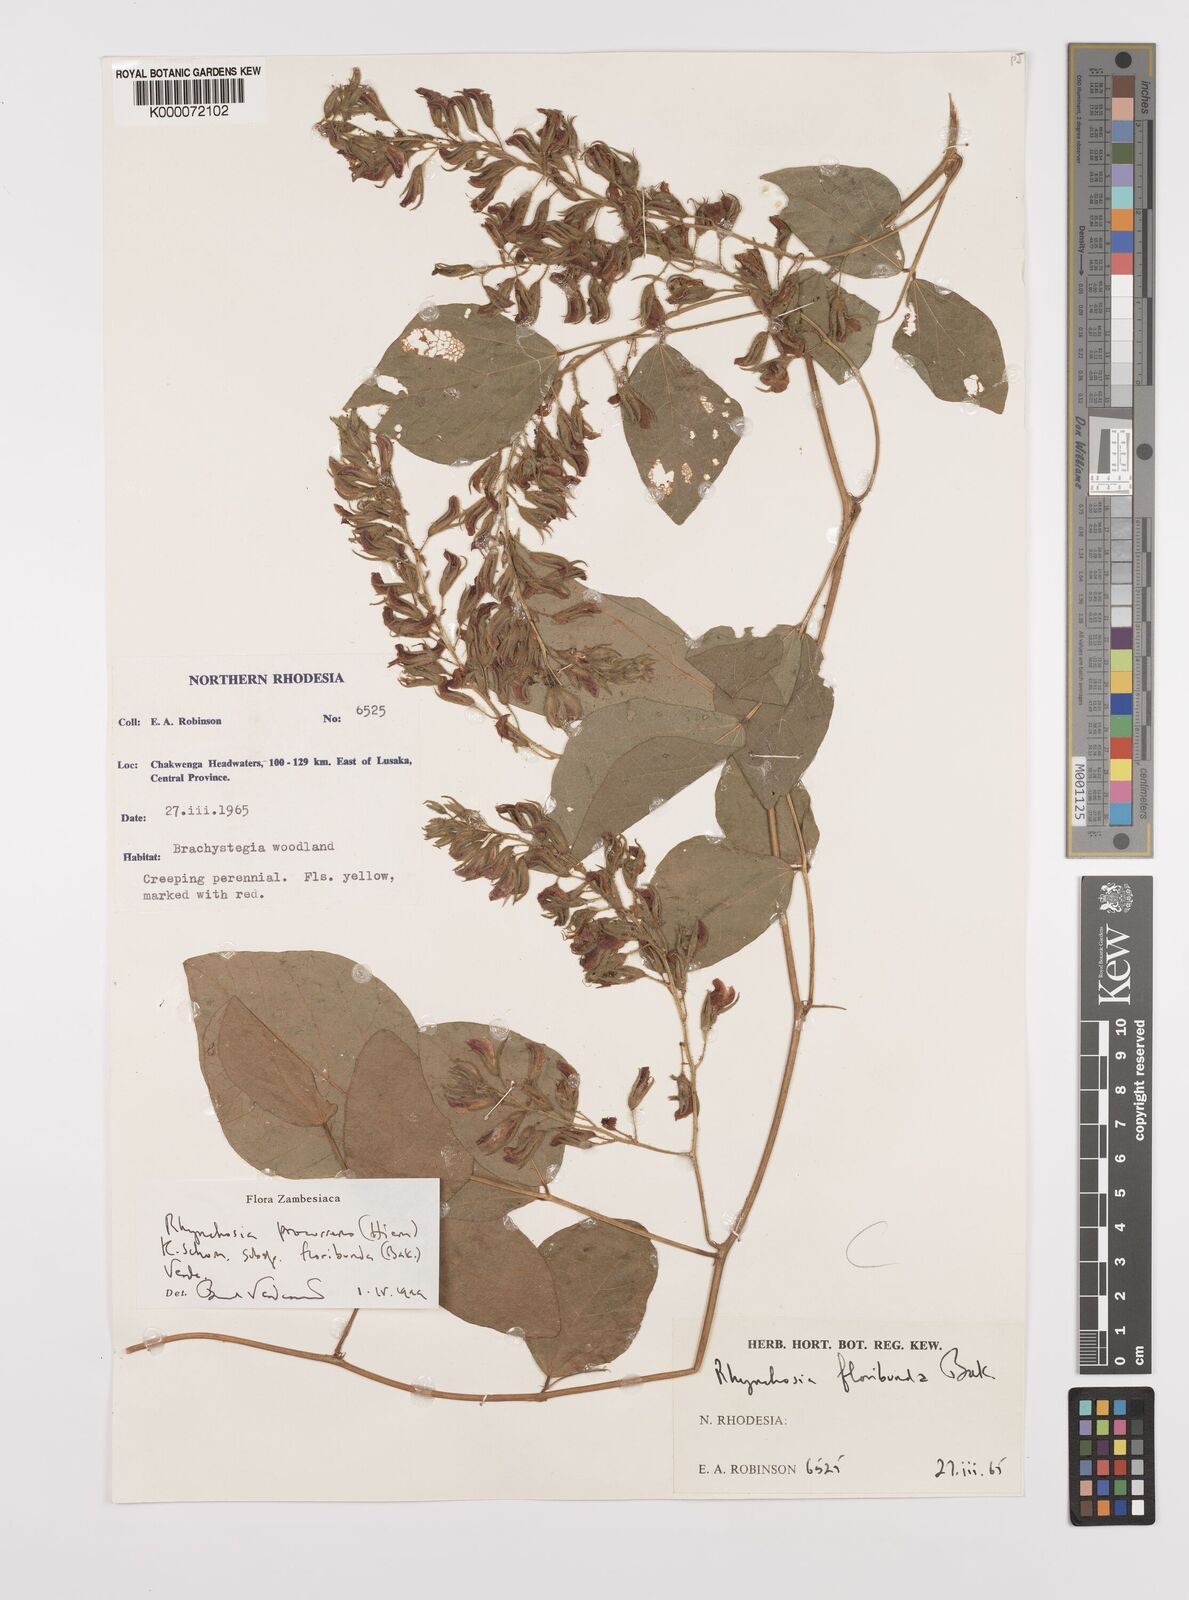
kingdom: Plantae
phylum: Tracheophyta
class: Magnoliopsida
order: Fabales
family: Fabaceae
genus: Rhynchosia
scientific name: Rhynchosia procurrens
